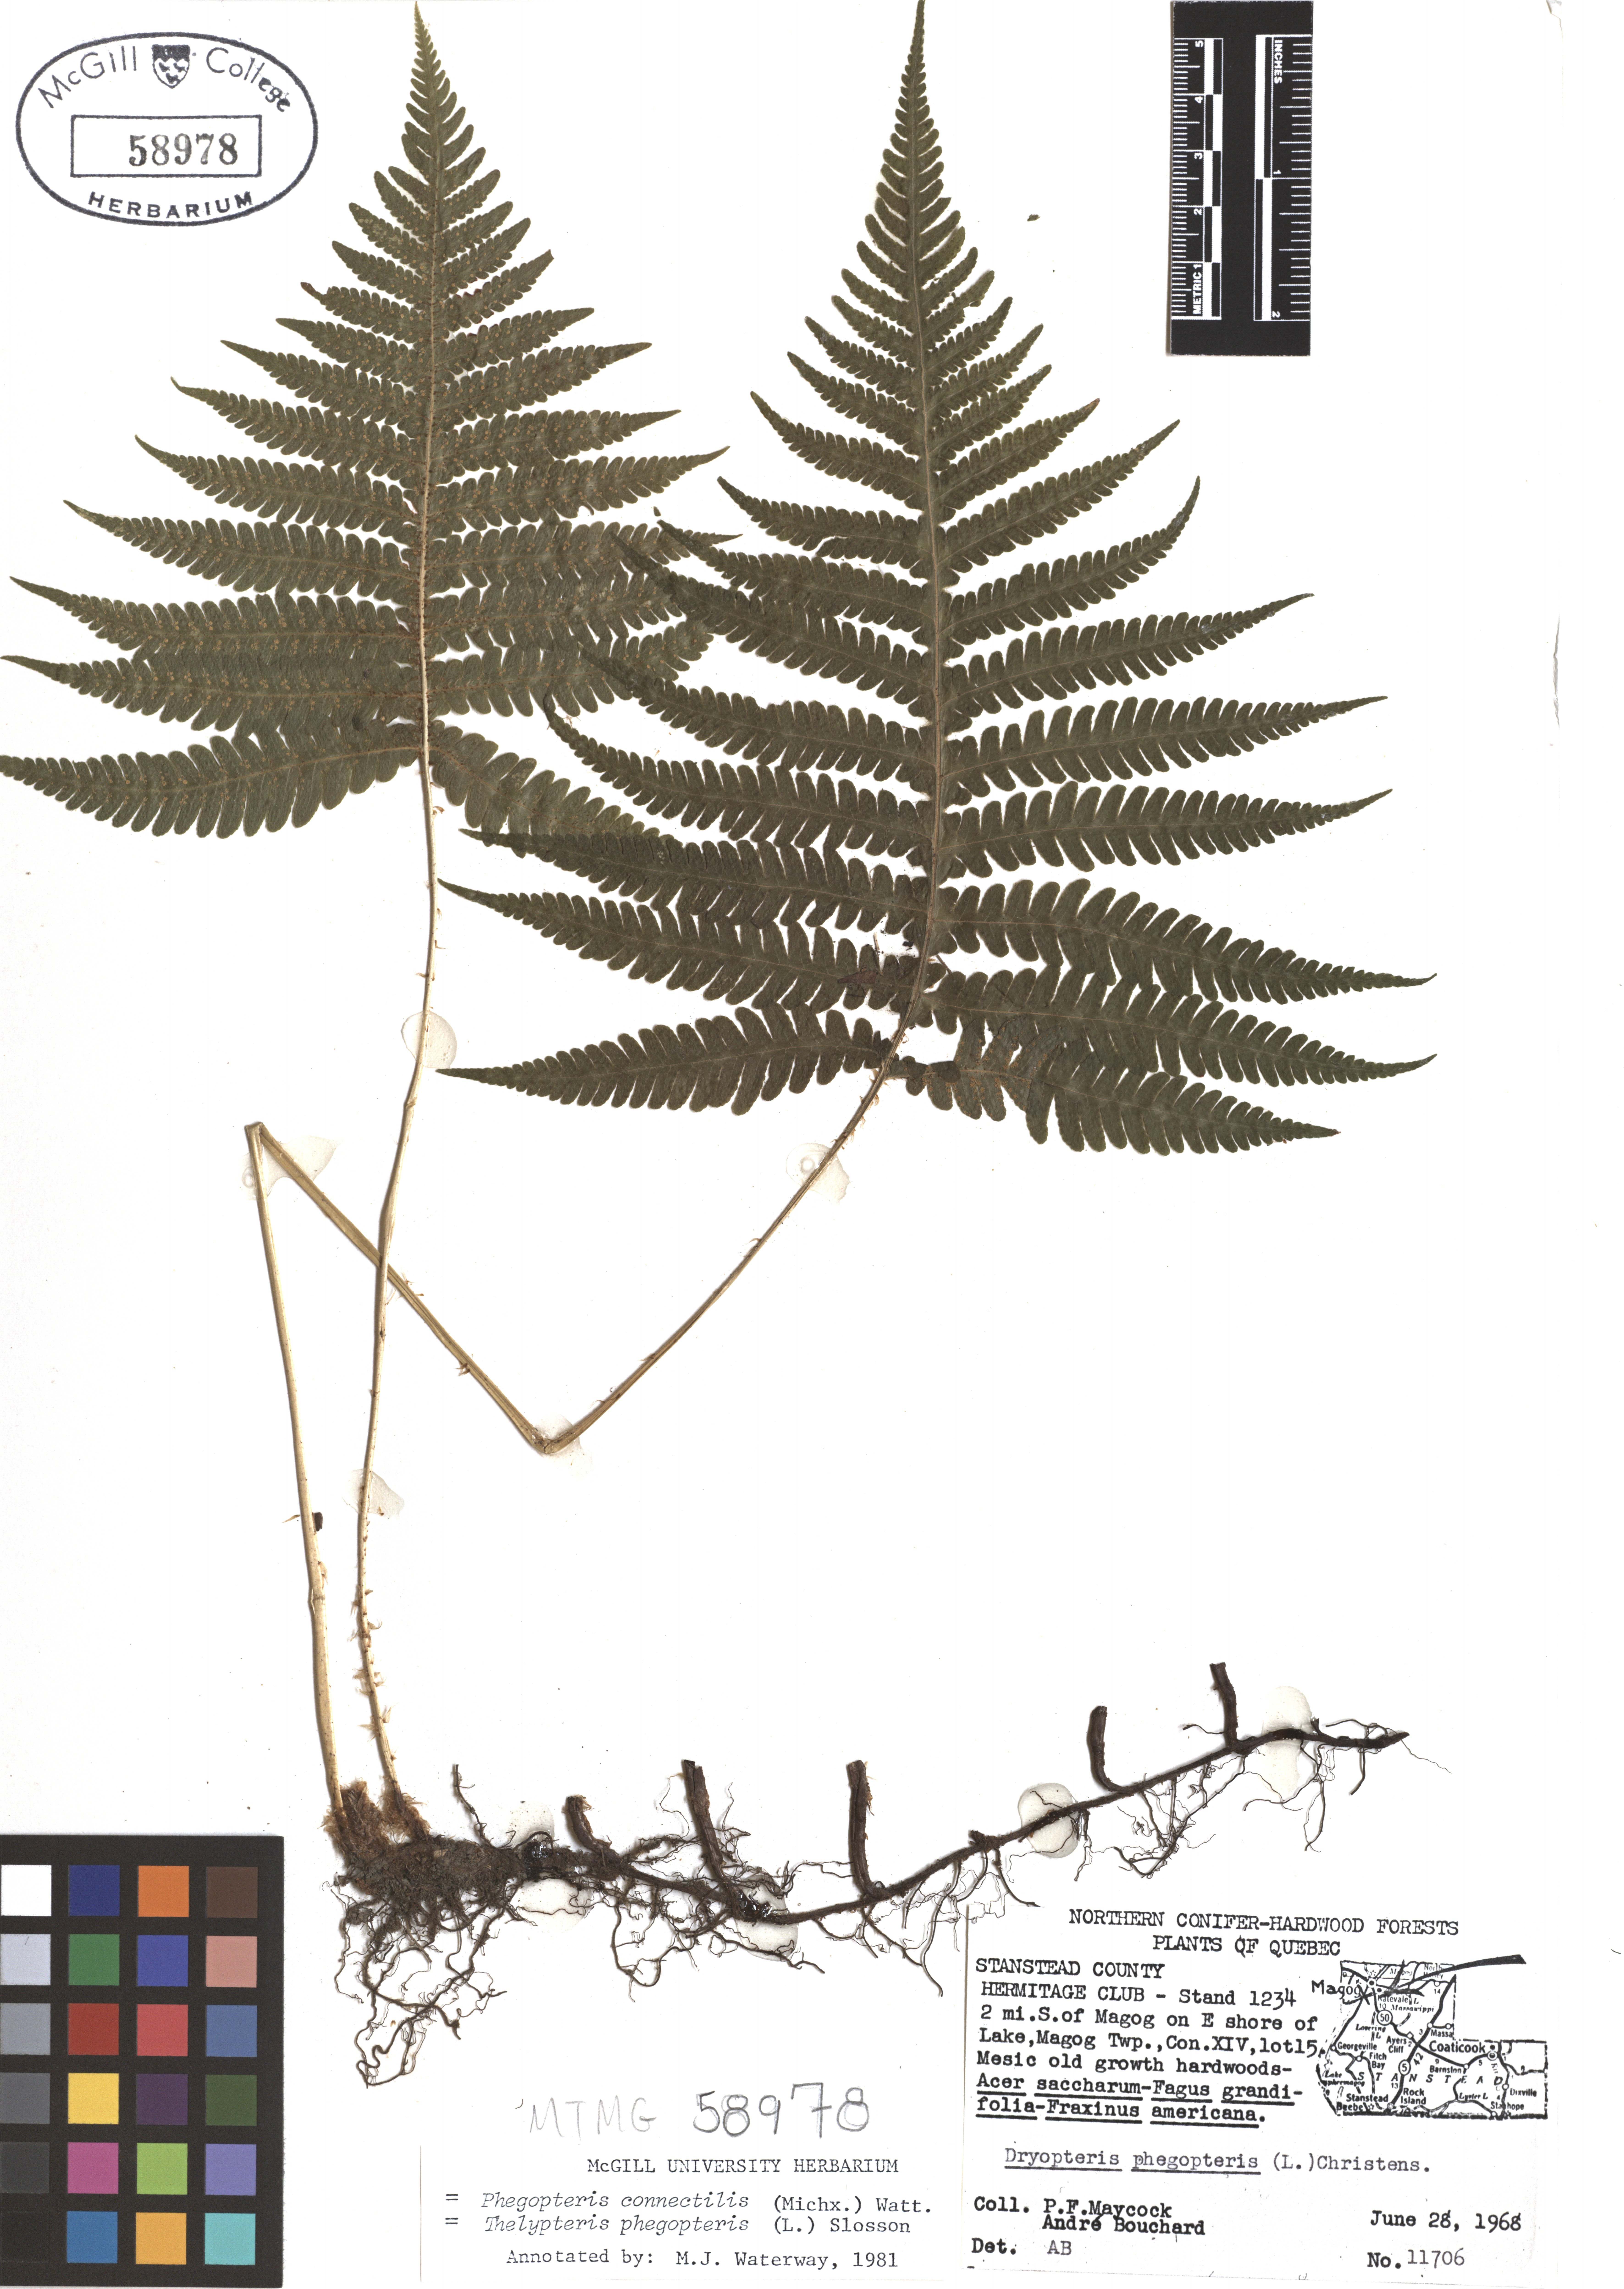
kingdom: Plantae
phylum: Tracheophyta
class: Polypodiopsida
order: Polypodiales
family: Thelypteridaceae
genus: Phegopteris
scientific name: Phegopteris connectilis
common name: Beech fern
